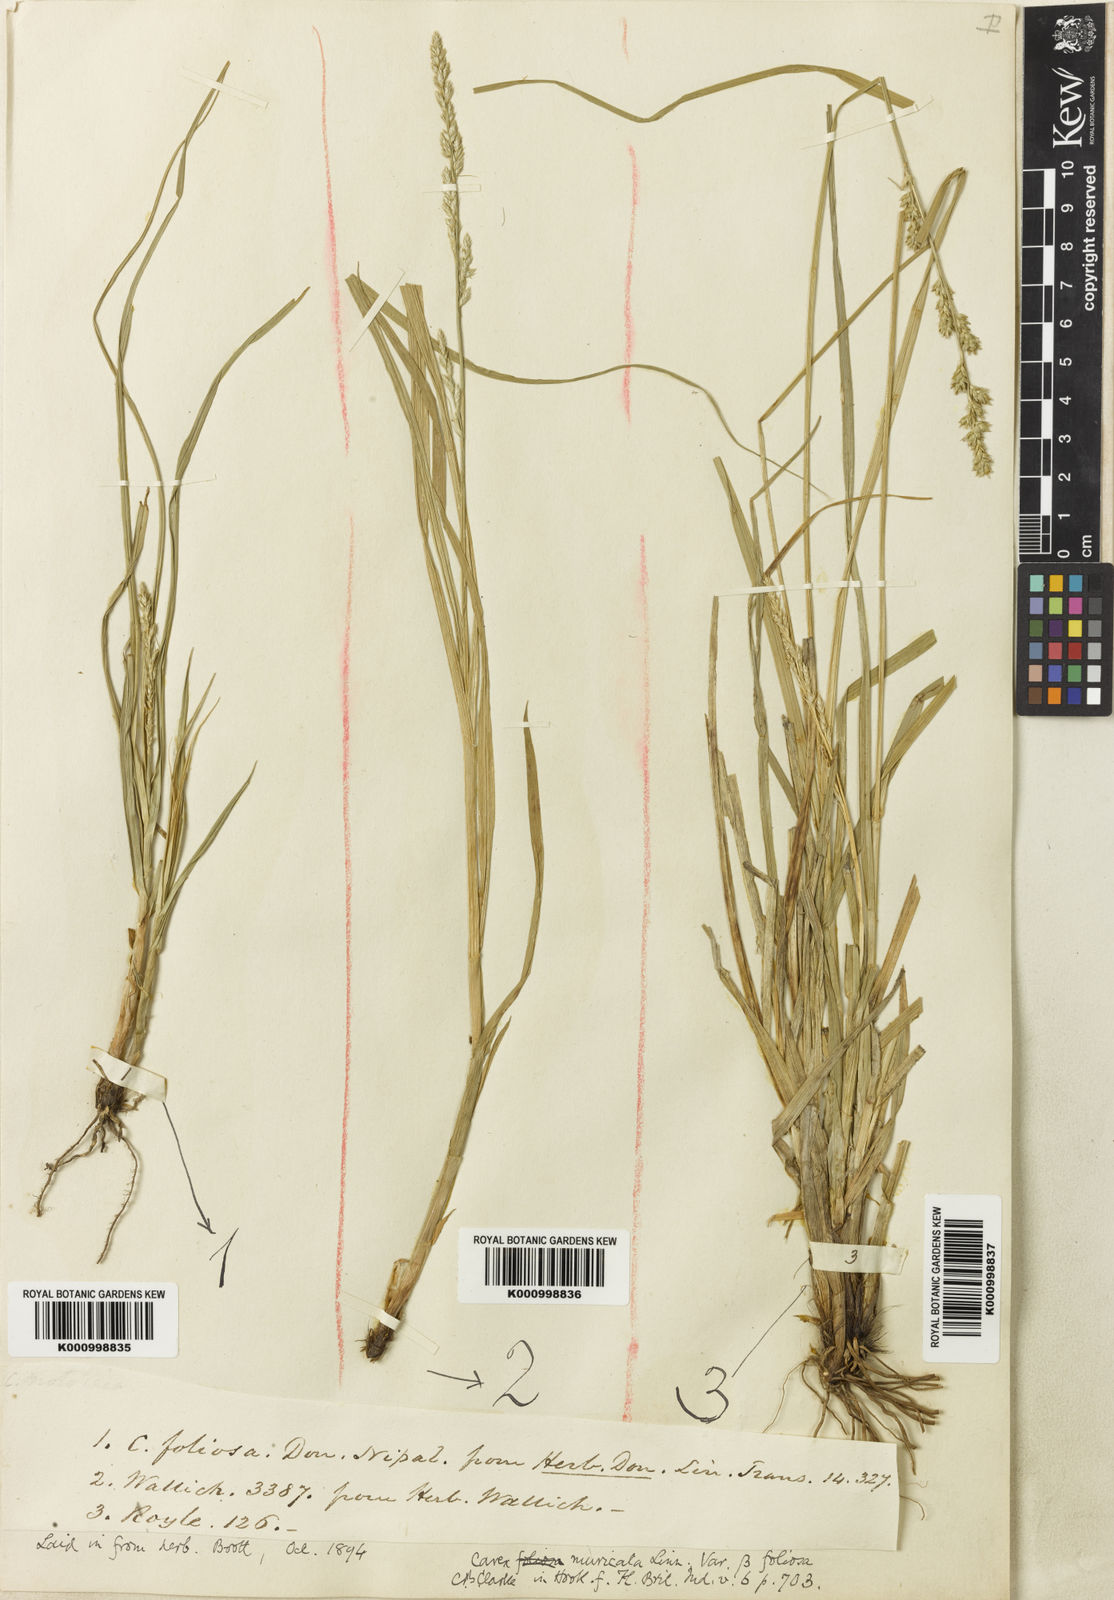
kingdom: Plantae
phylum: Tracheophyta
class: Liliopsida
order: Poales
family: Cyperaceae
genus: Carex
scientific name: Carex
